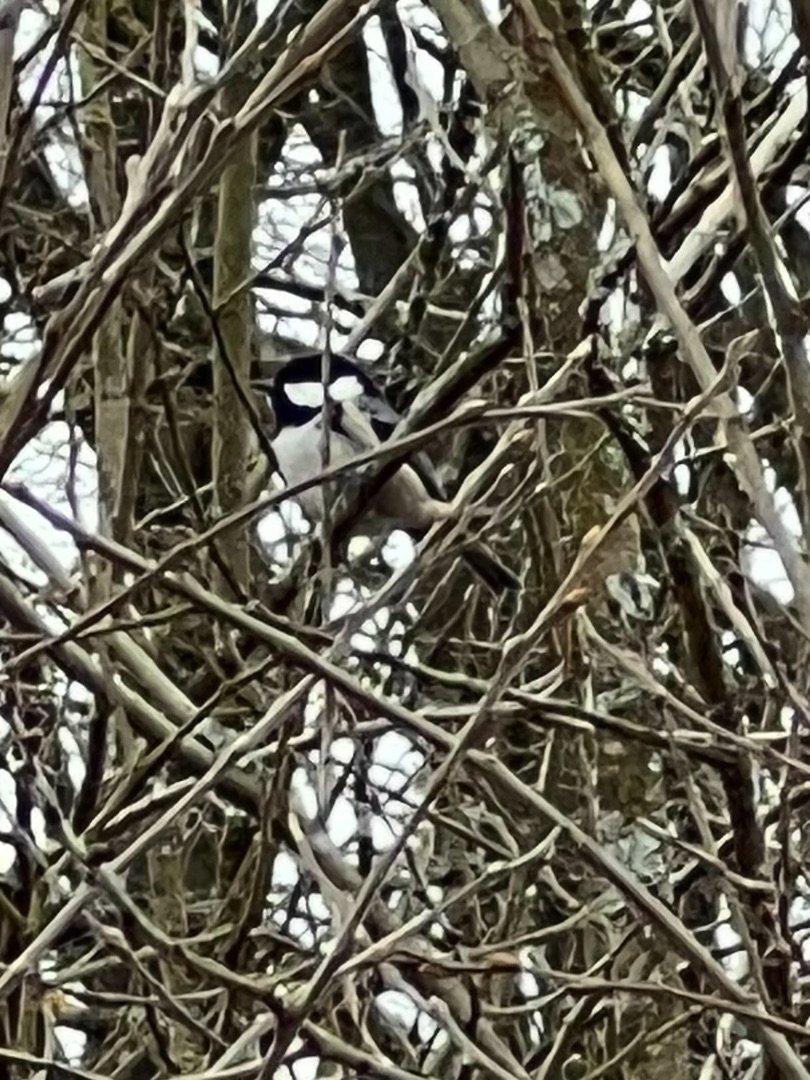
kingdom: Animalia
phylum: Chordata
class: Aves
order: Passeriformes
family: Paridae
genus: Periparus
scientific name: Periparus ater
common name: Sortmejse
